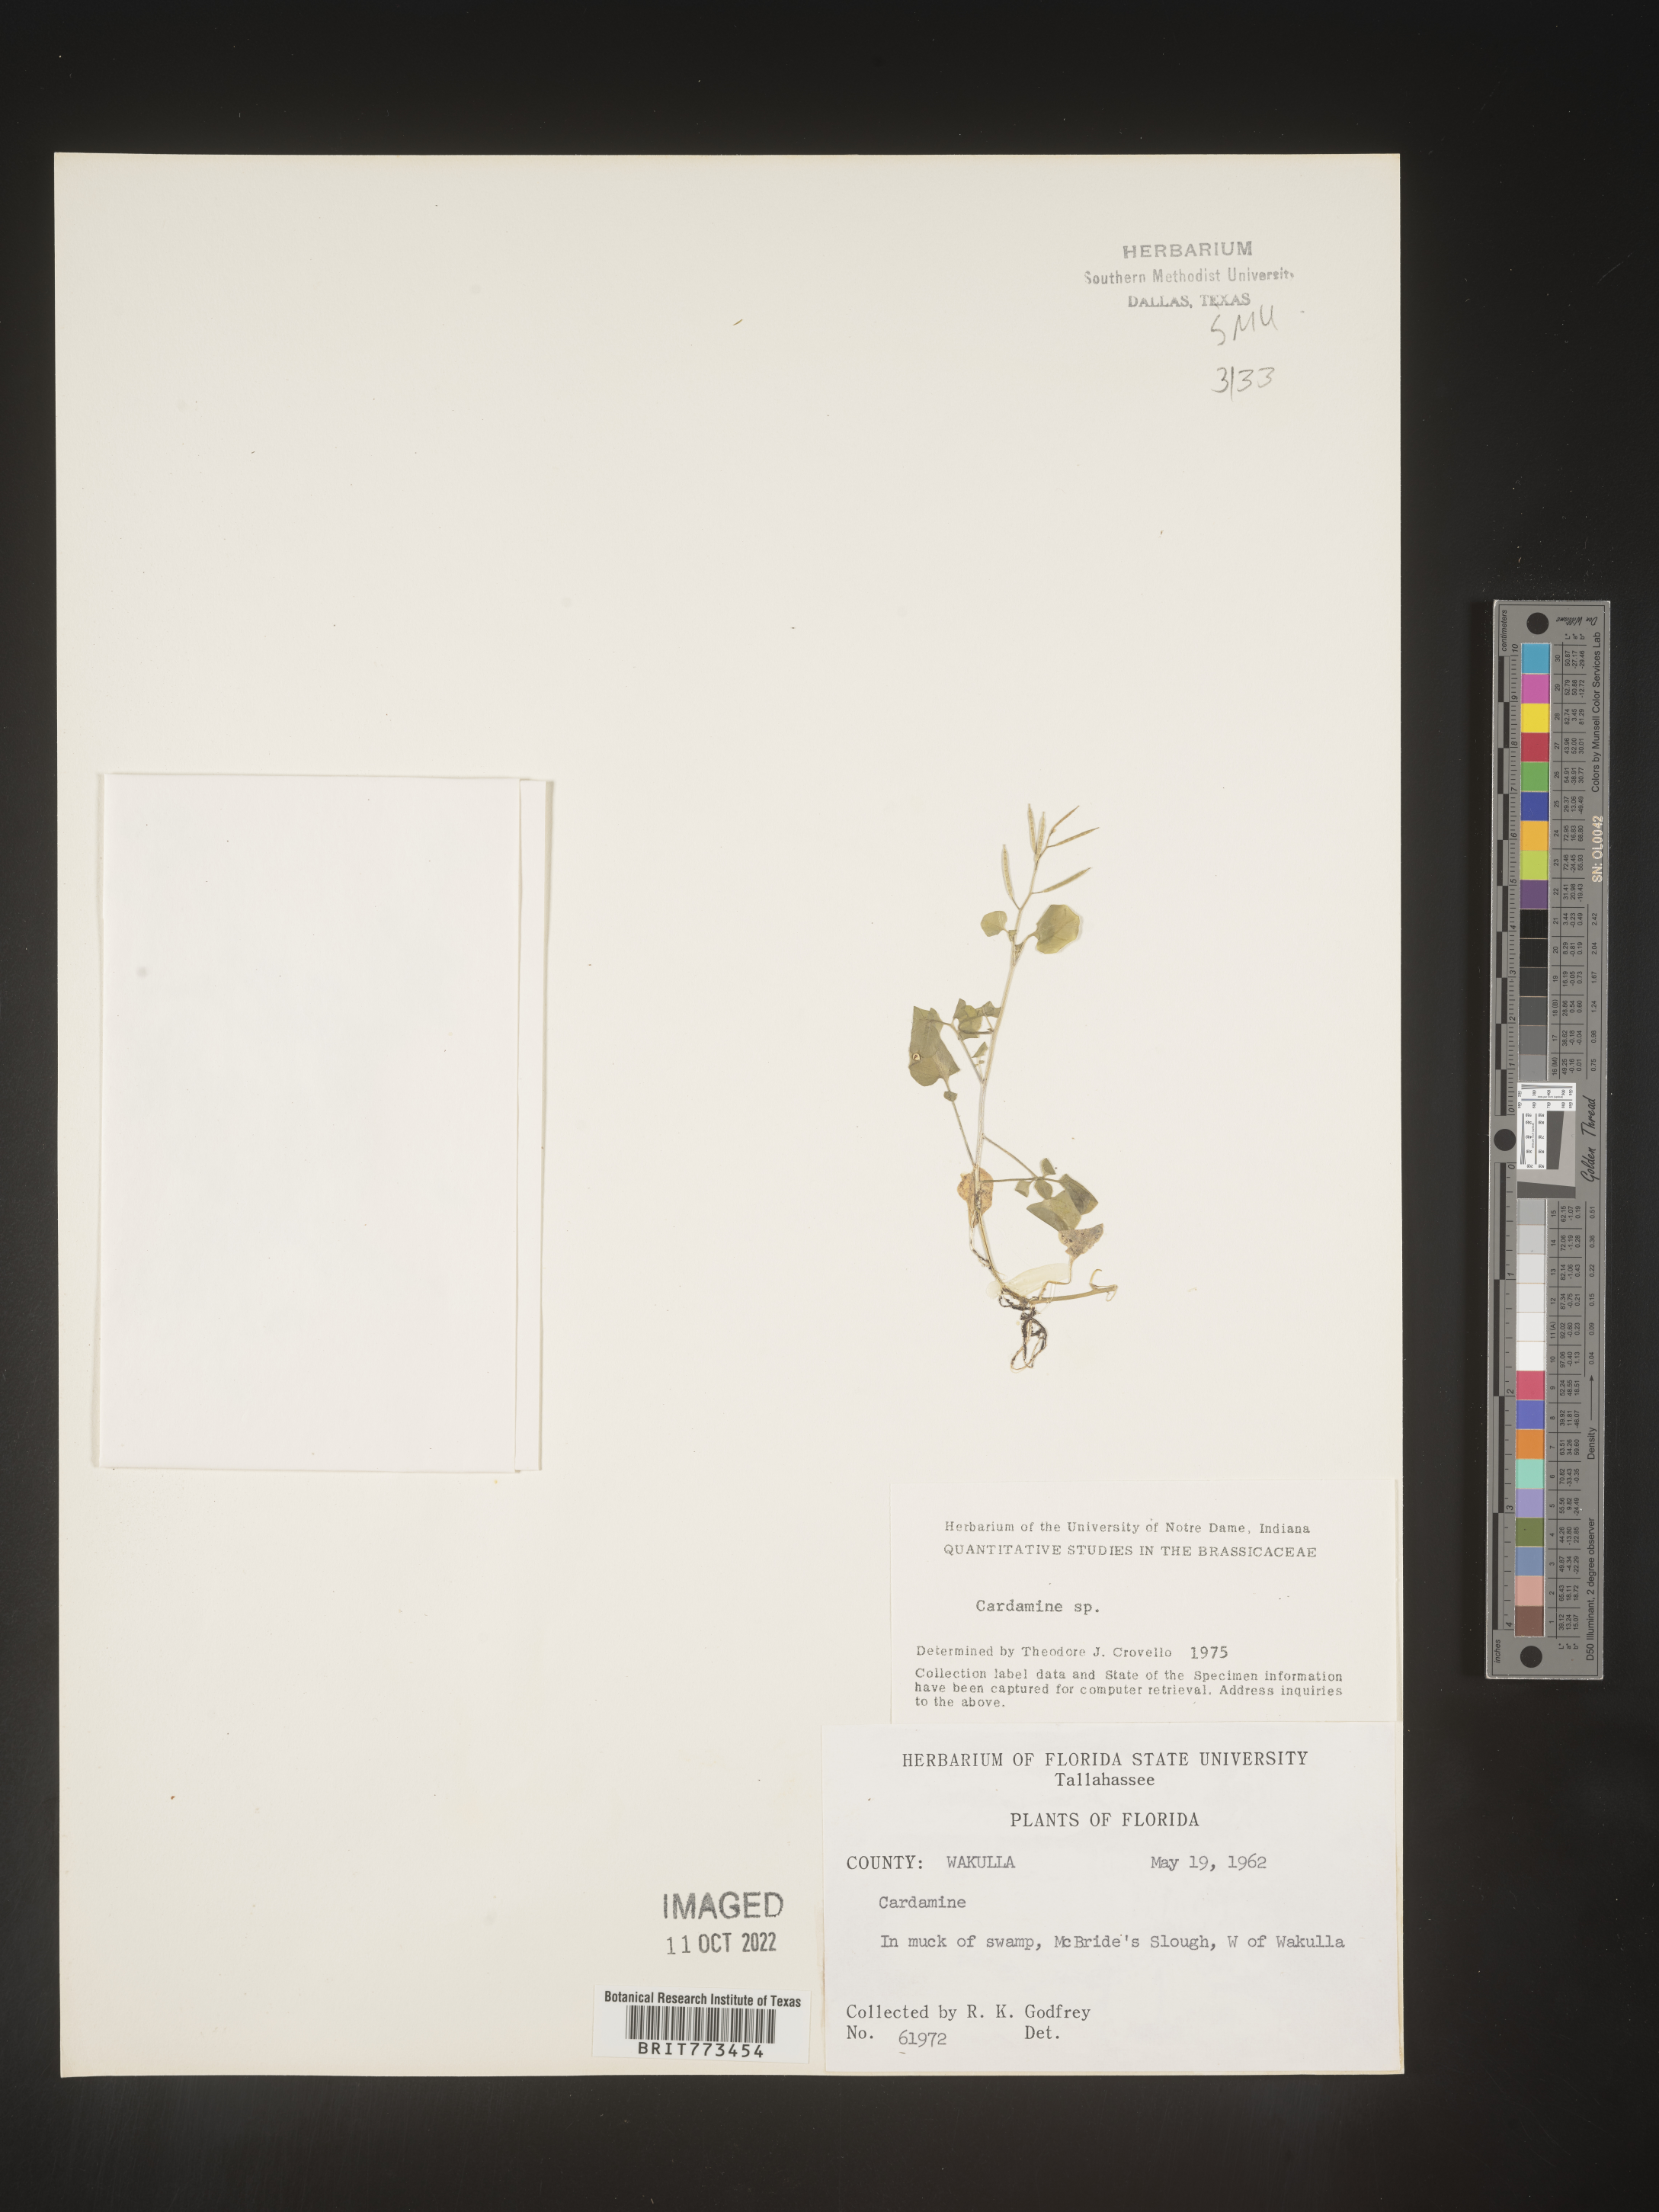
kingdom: Plantae
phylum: Tracheophyta
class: Magnoliopsida
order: Brassicales
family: Brassicaceae
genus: Cardamine
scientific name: Cardamine
